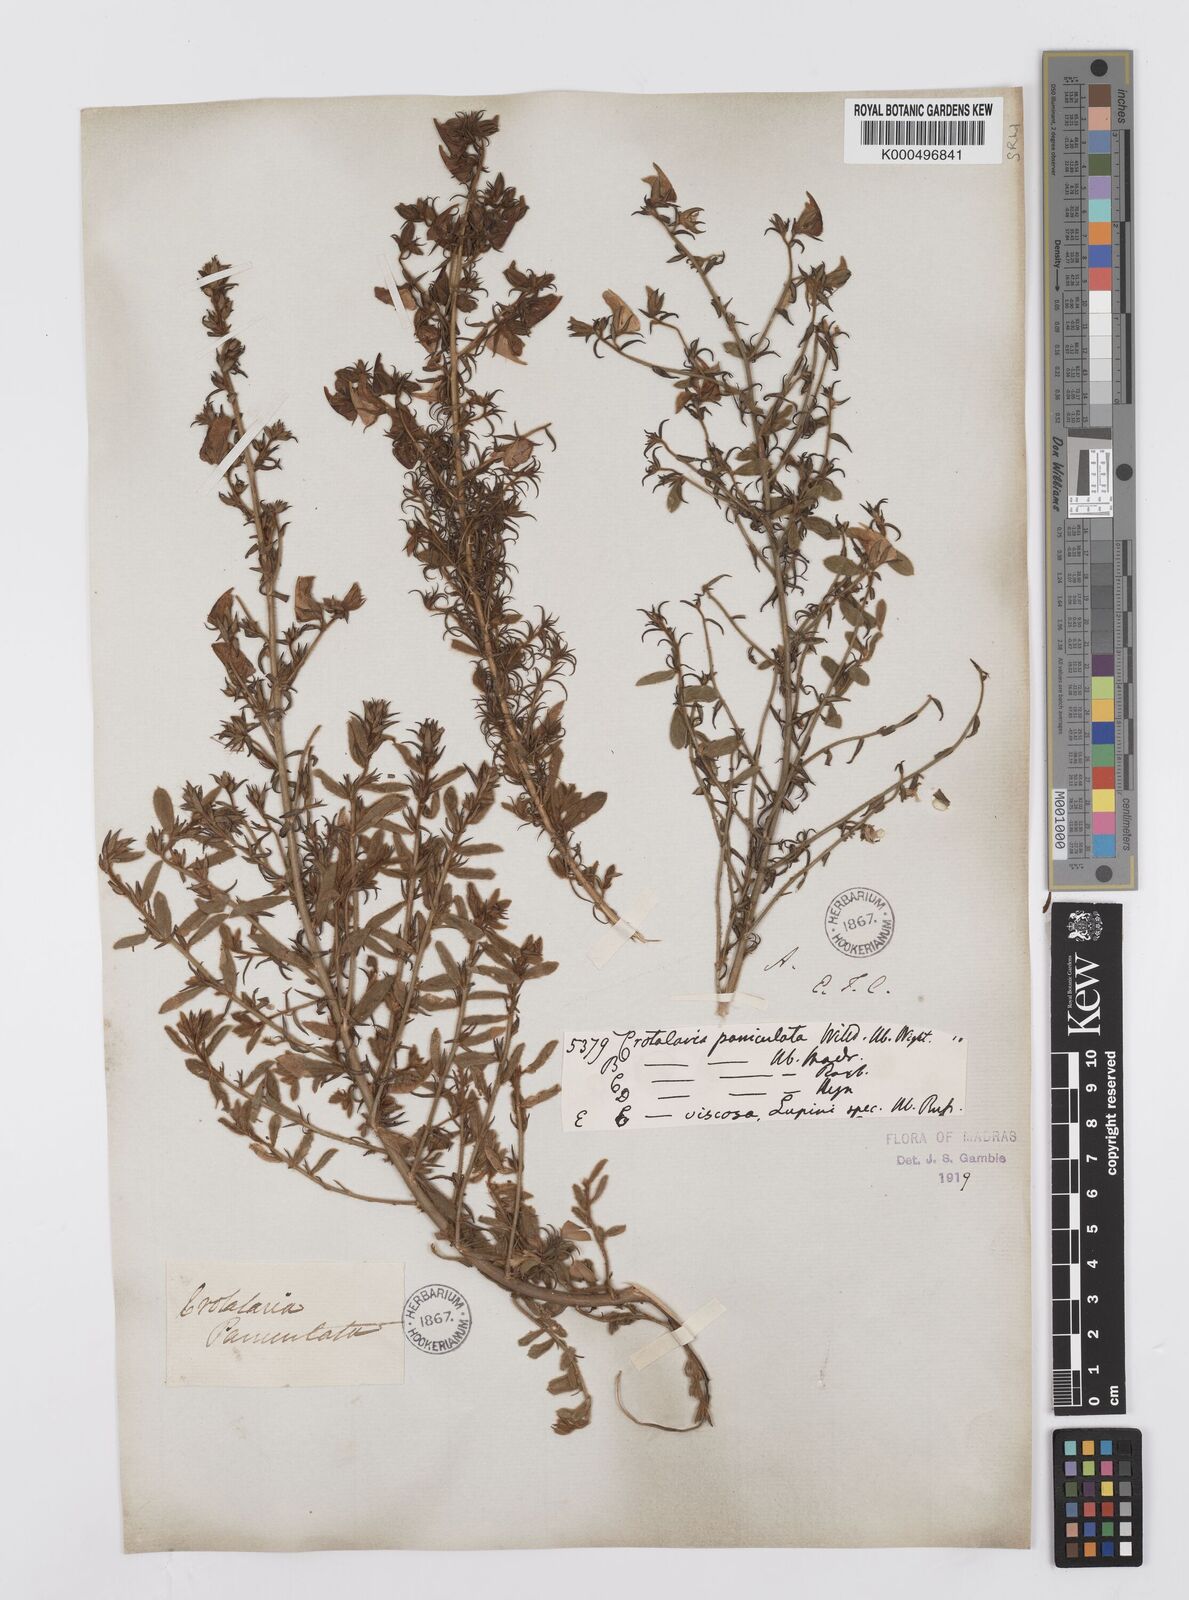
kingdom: Plantae
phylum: Tracheophyta
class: Magnoliopsida
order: Fabales
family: Fabaceae
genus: Crotalaria
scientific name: Crotalaria paniculata
